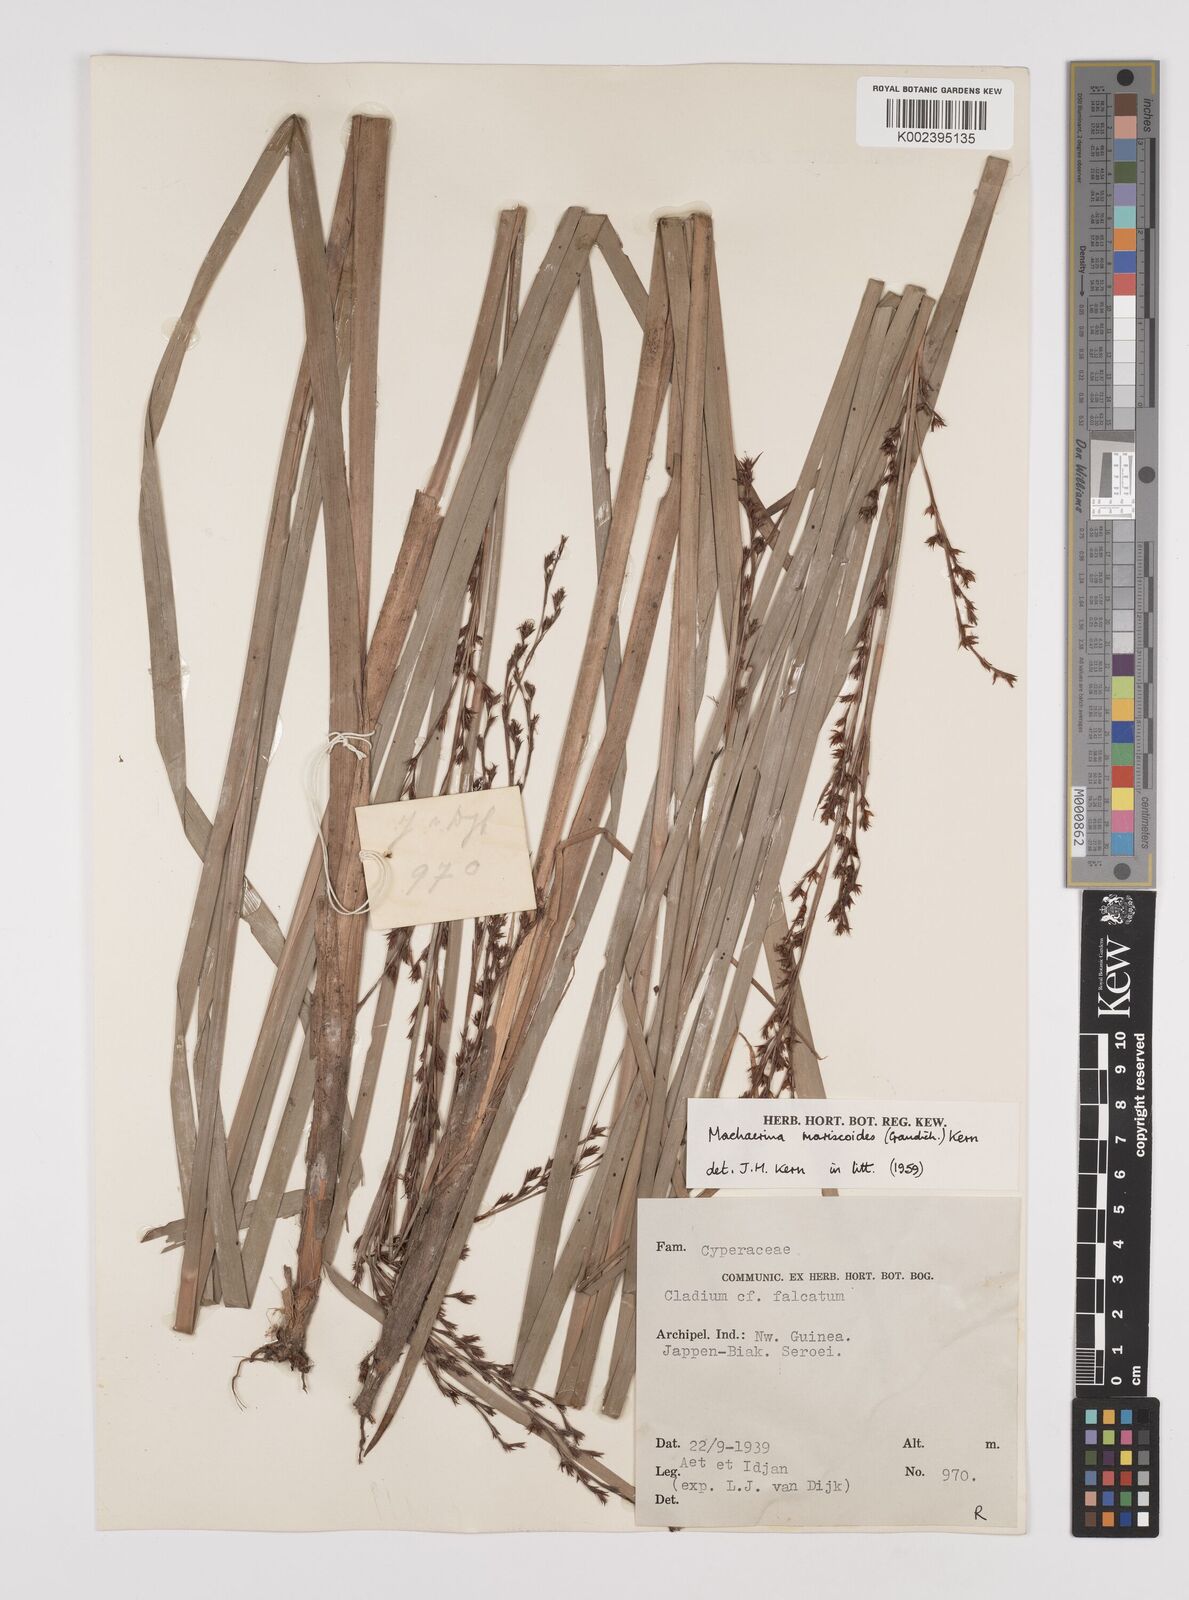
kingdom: Plantae
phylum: Tracheophyta
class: Liliopsida
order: Poales
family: Cyperaceae
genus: Machaerina
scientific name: Machaerina mariscoides
